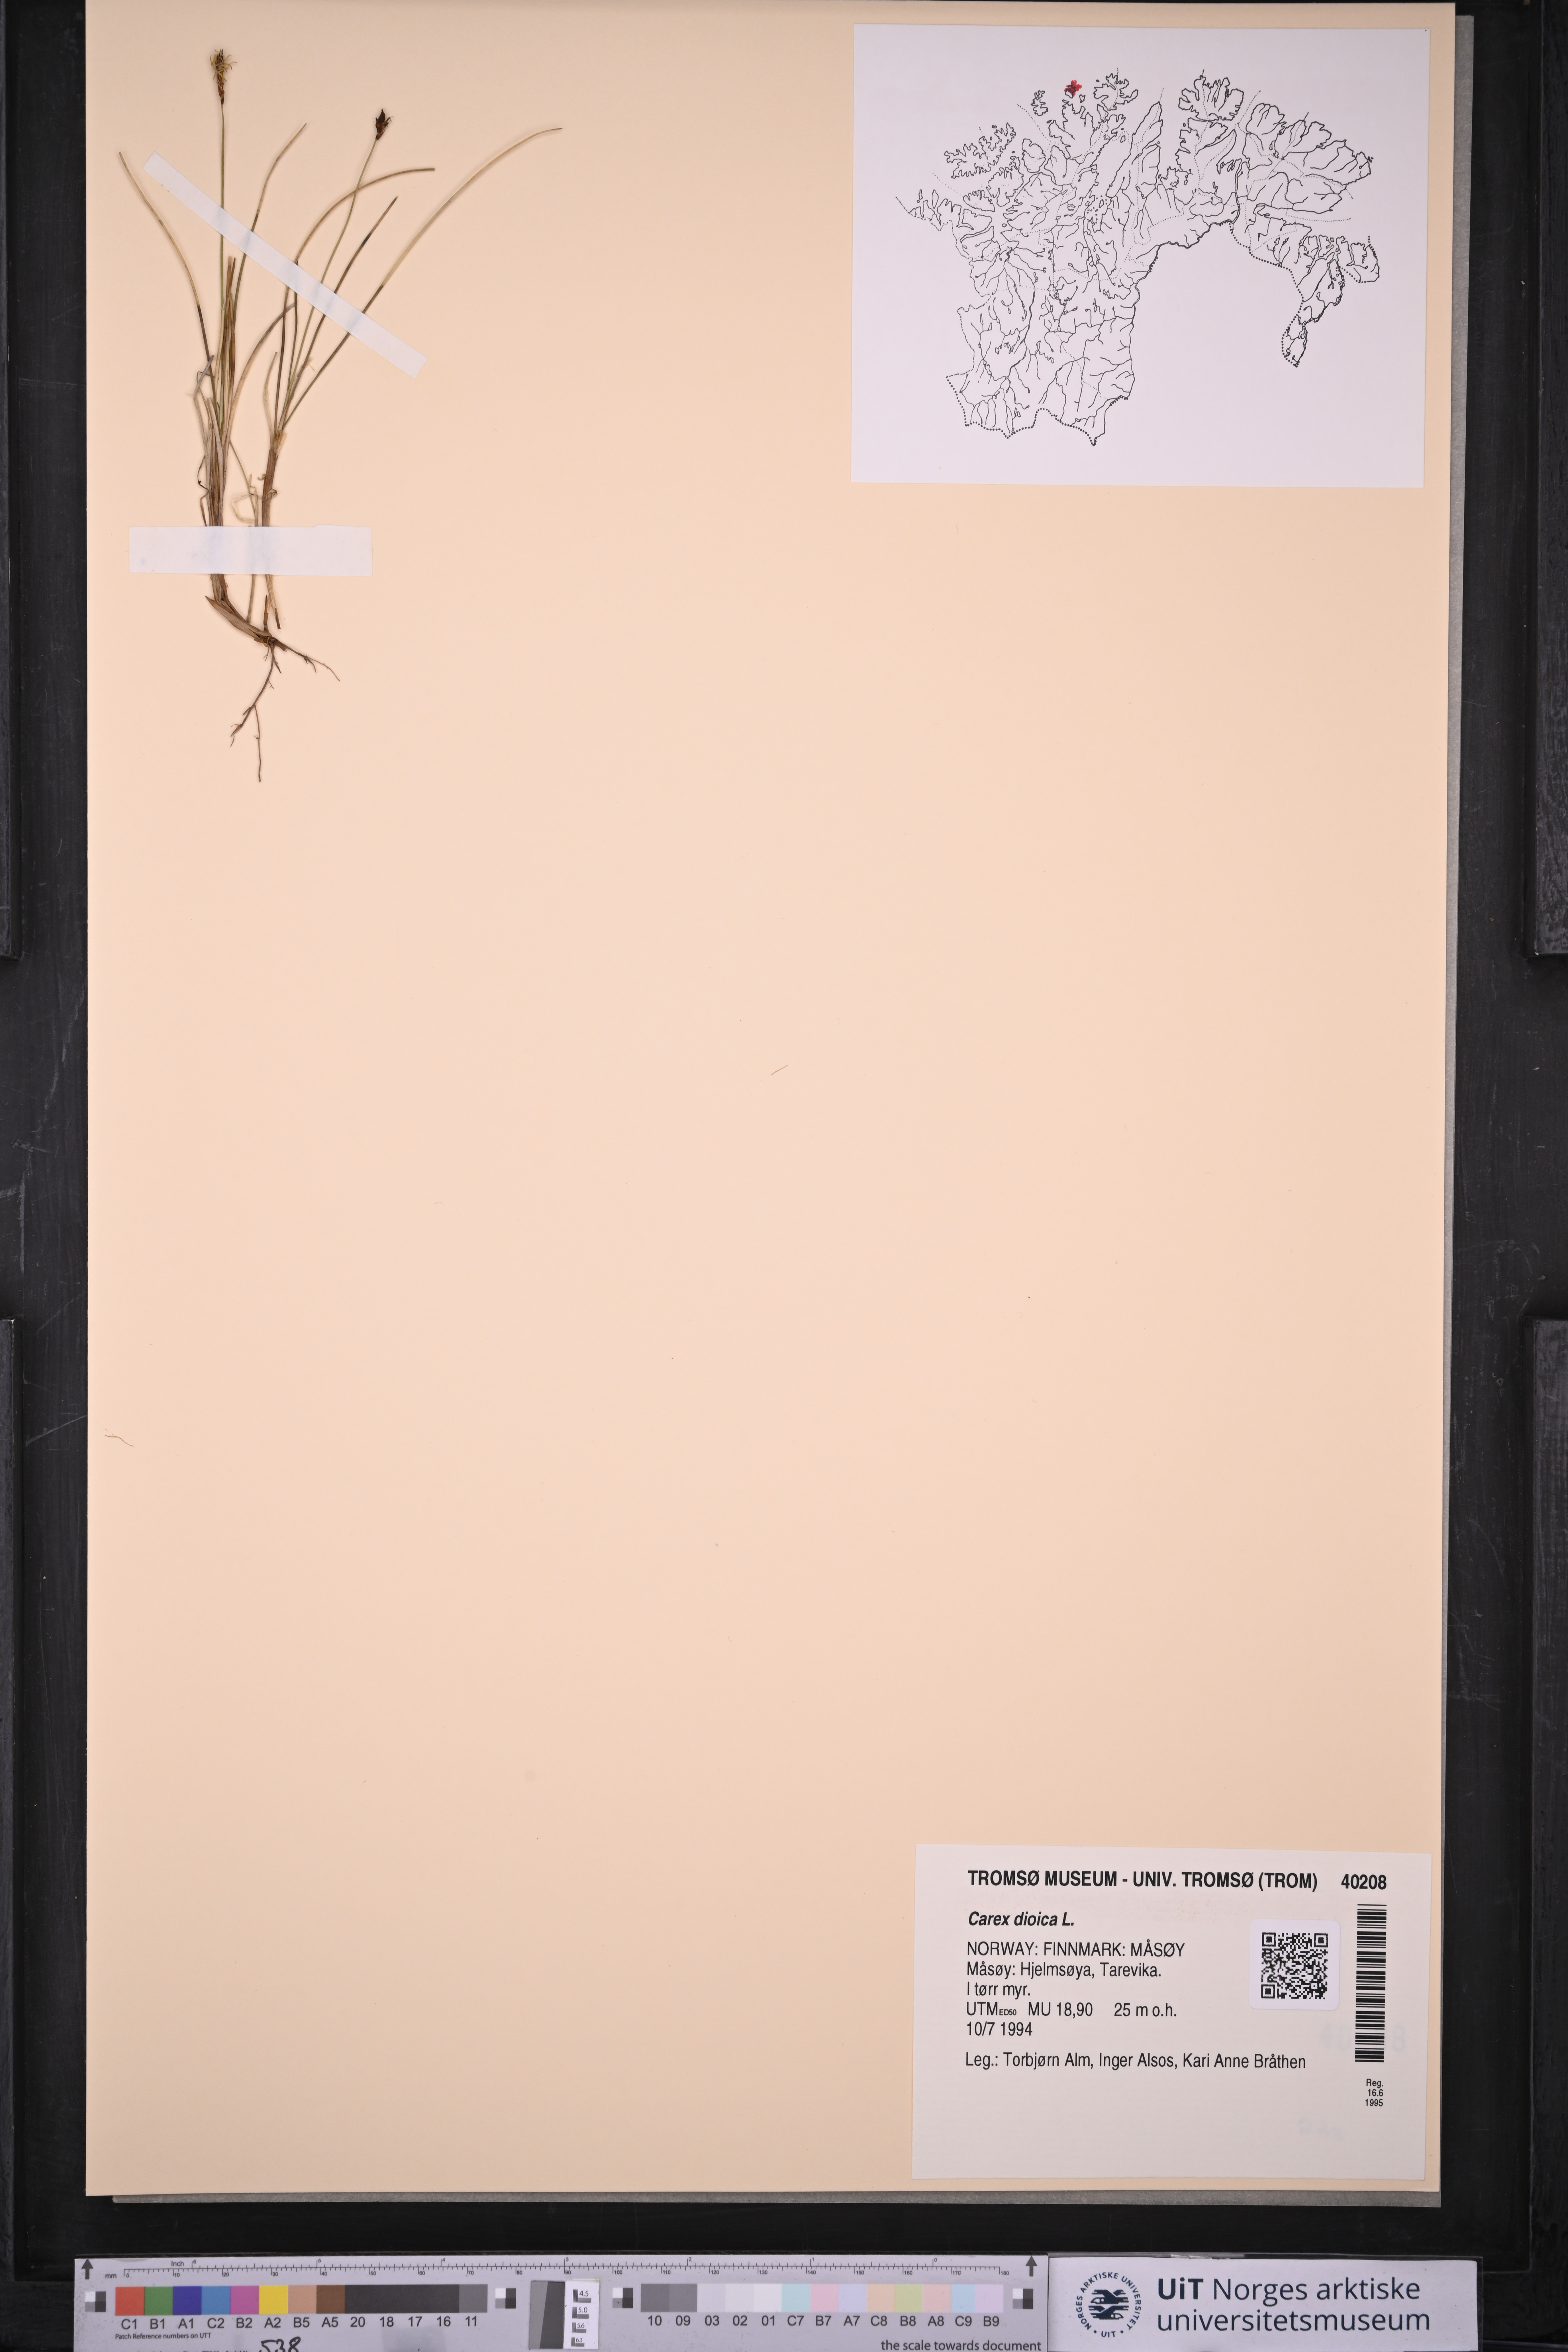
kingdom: Plantae
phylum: Tracheophyta
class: Liliopsida
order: Poales
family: Cyperaceae
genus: Carex
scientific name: Carex dioica
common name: Dioecious sedge
